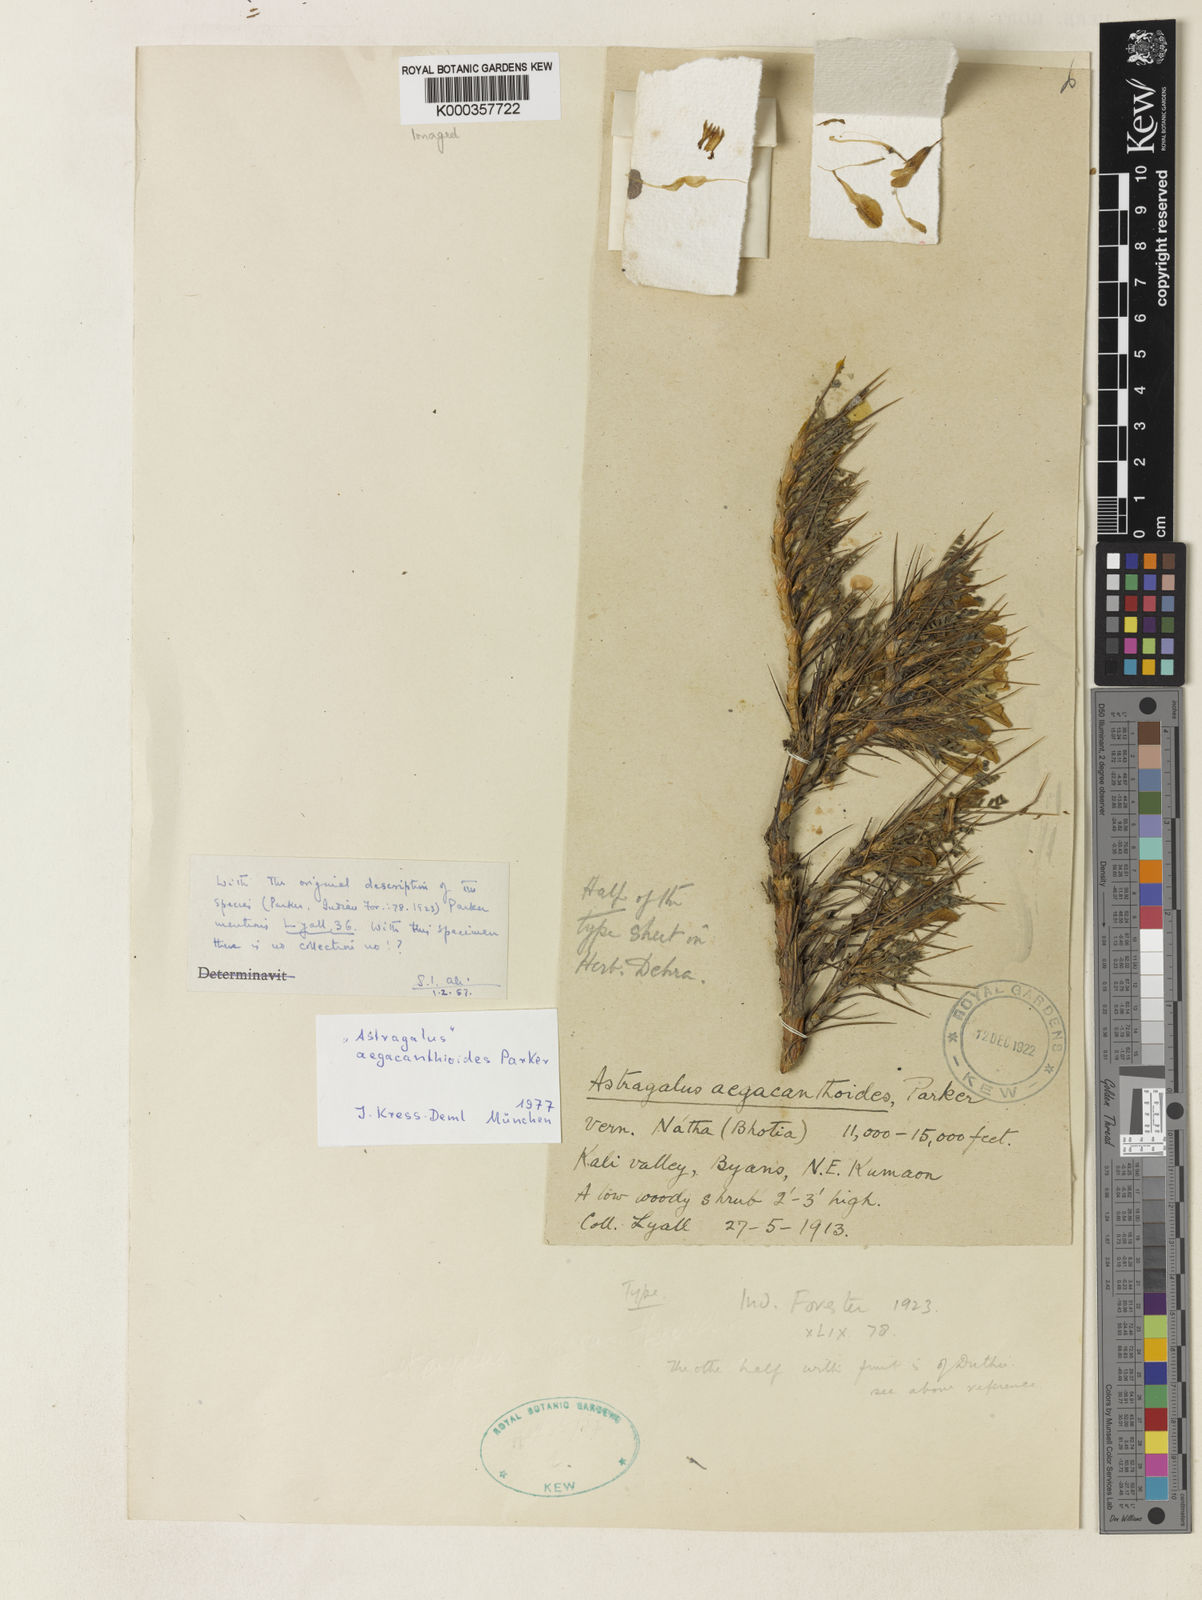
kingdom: Plantae
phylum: Tracheophyta
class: Magnoliopsida
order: Fabales
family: Fabaceae
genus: Caragana
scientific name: Caragana aegacanthoides
